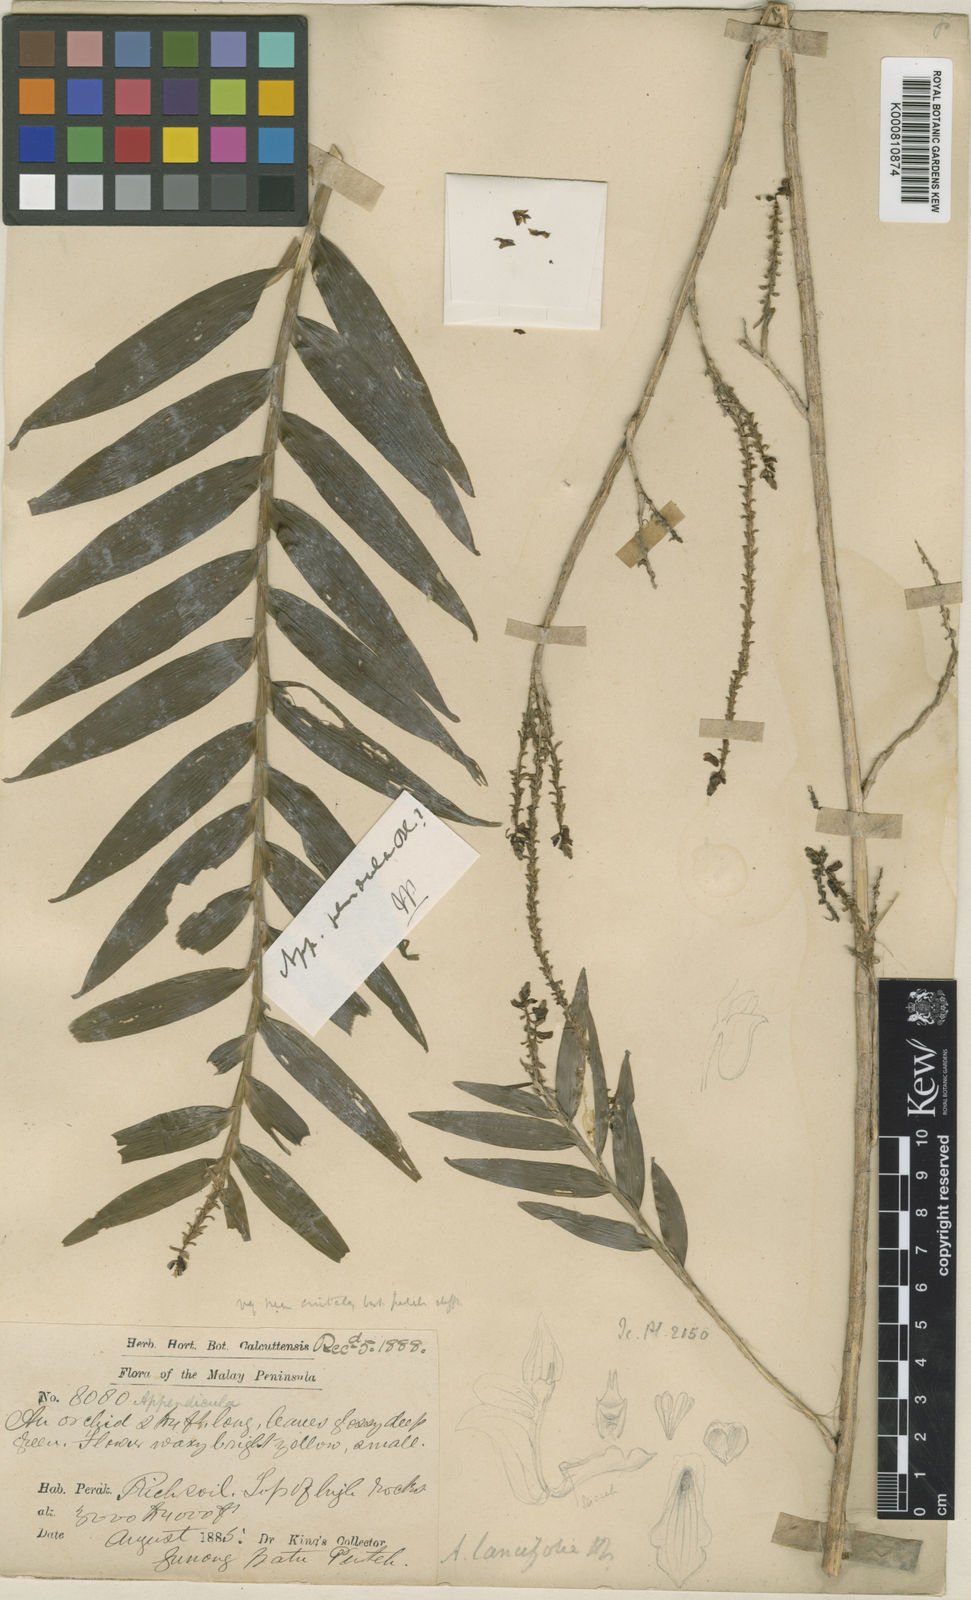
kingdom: Plantae
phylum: Tracheophyta
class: Liliopsida
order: Asparagales
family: Orchidaceae
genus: Appendicula
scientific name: Appendicula pendula
